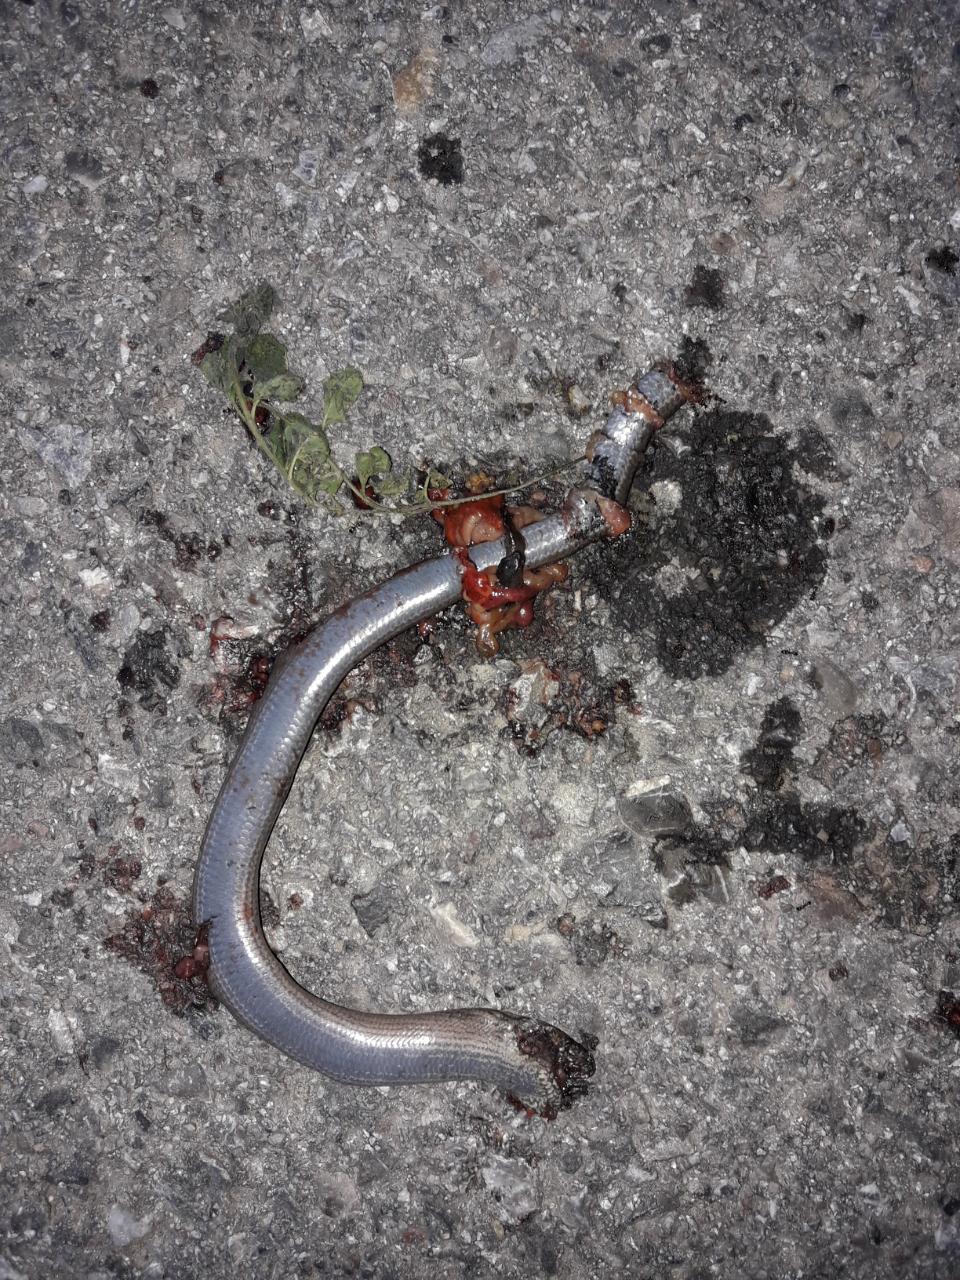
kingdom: Animalia
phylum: Chordata
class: Squamata
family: Anguidae
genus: Anguis
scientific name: Anguis fragilis
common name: Slow worm
